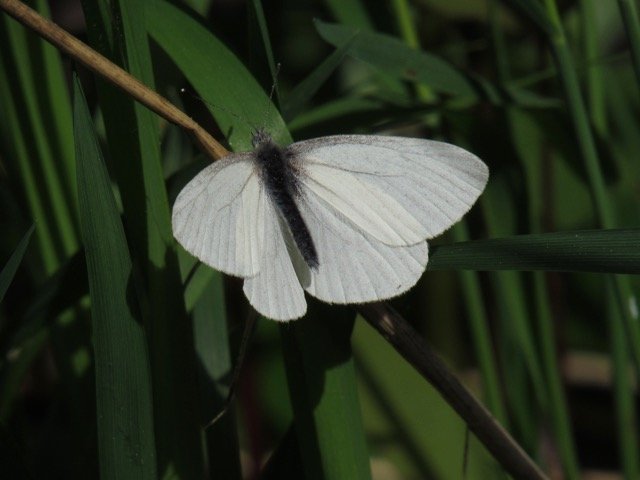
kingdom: Animalia
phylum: Arthropoda
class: Insecta
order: Lepidoptera
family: Pieridae
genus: Pieris
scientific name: Pieris virginiensis
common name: West Virginia White
